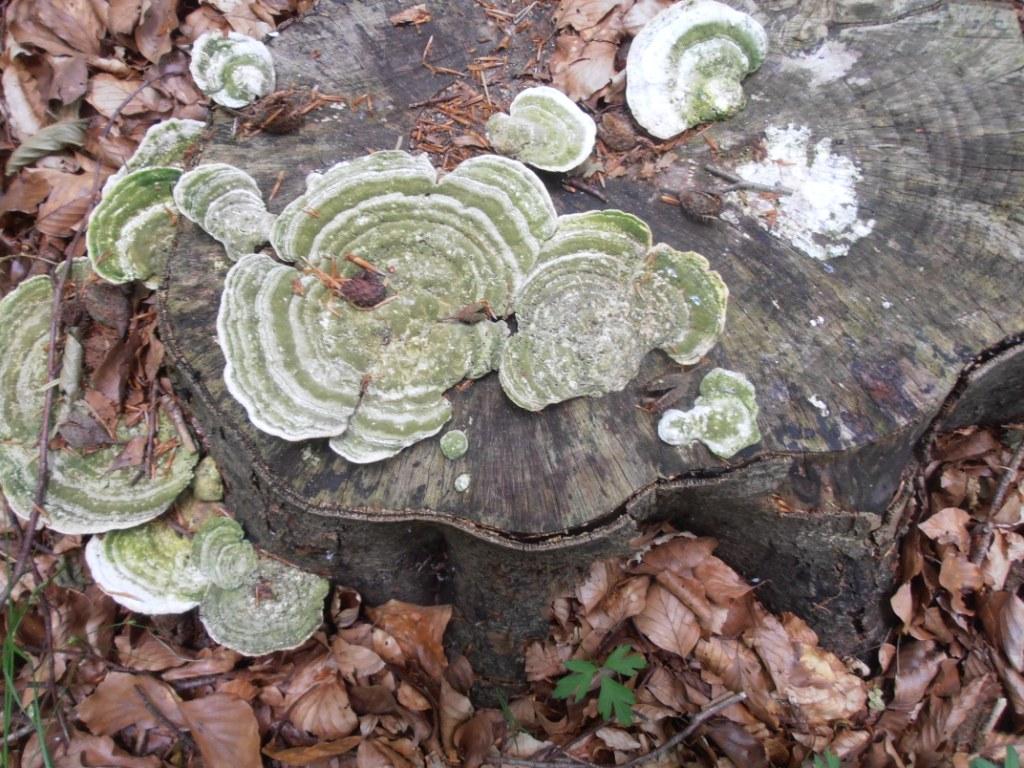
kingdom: Fungi
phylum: Basidiomycota
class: Agaricomycetes
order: Polyporales
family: Polyporaceae
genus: Trametes
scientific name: Trametes hirsuta
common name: håret læderporesvamp
